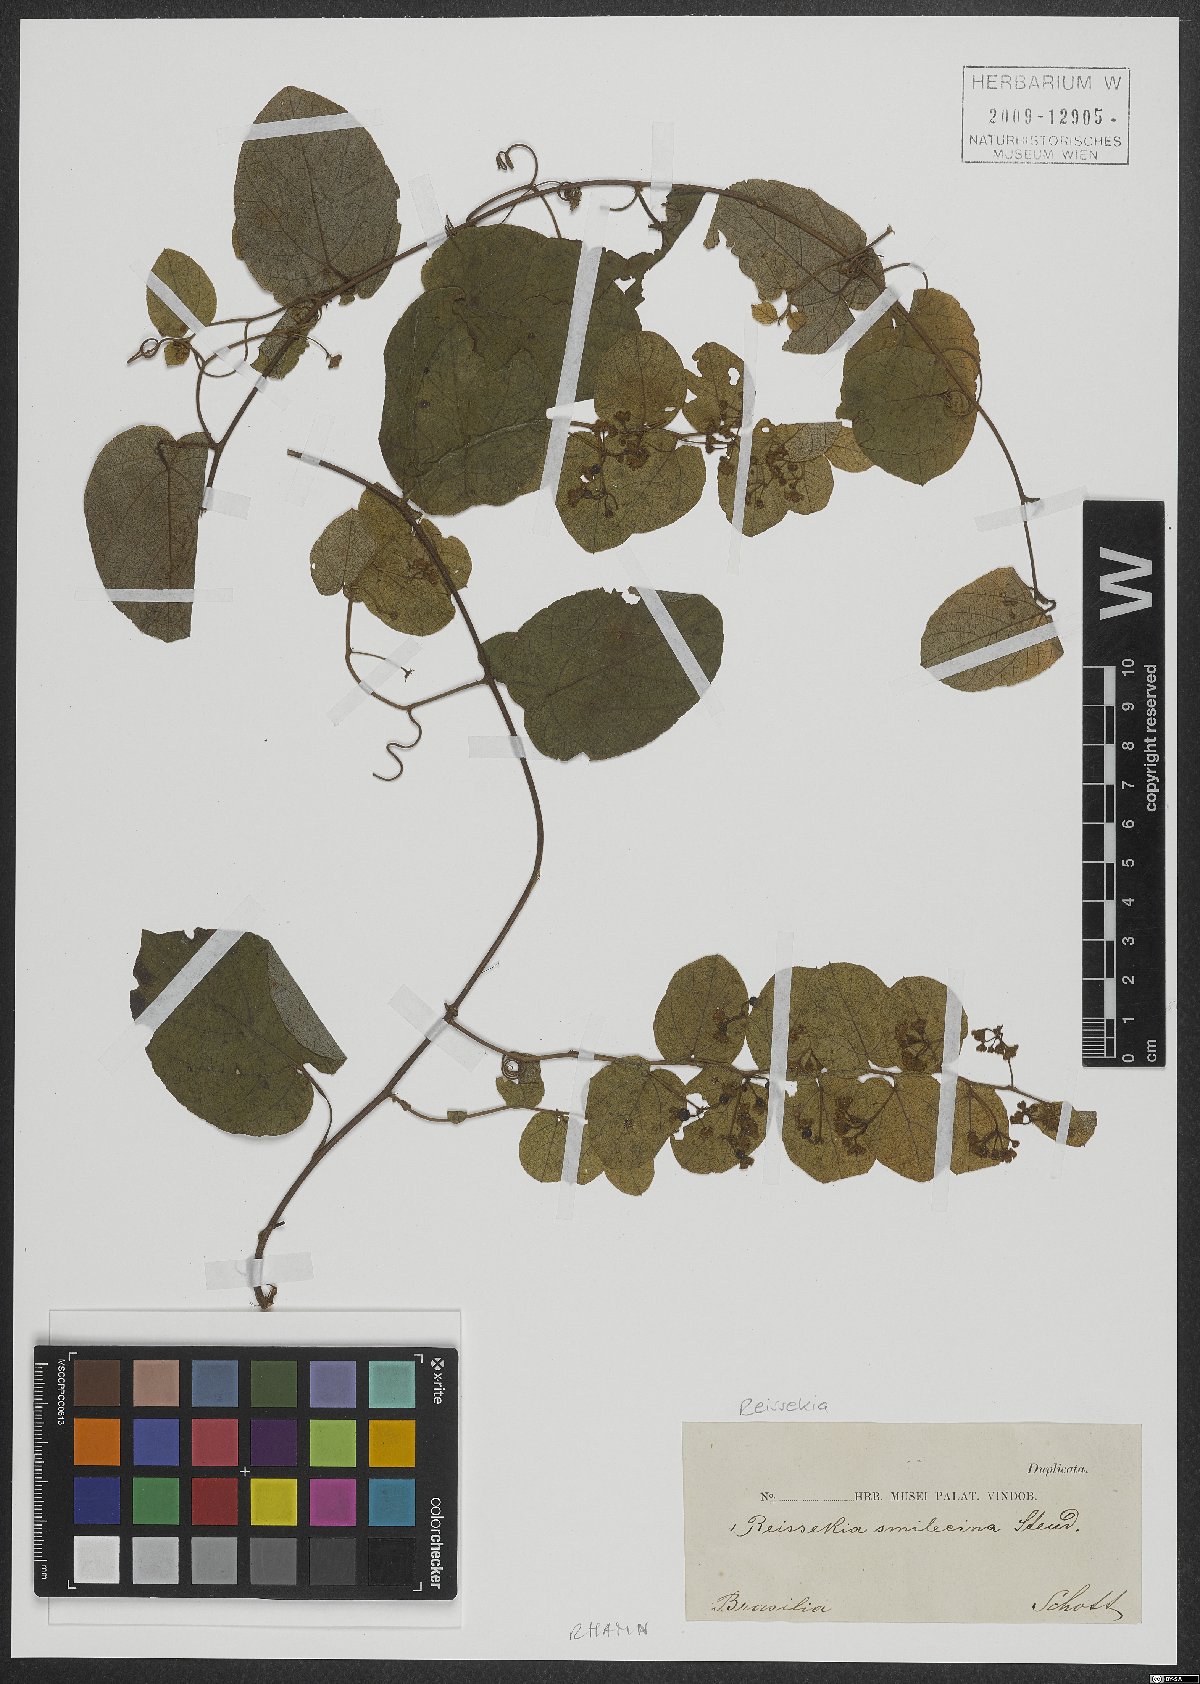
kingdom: Plantae
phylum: Tracheophyta
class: Magnoliopsida
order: Rosales
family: Rhamnaceae
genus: Reissekia
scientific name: Reissekia smilacina
